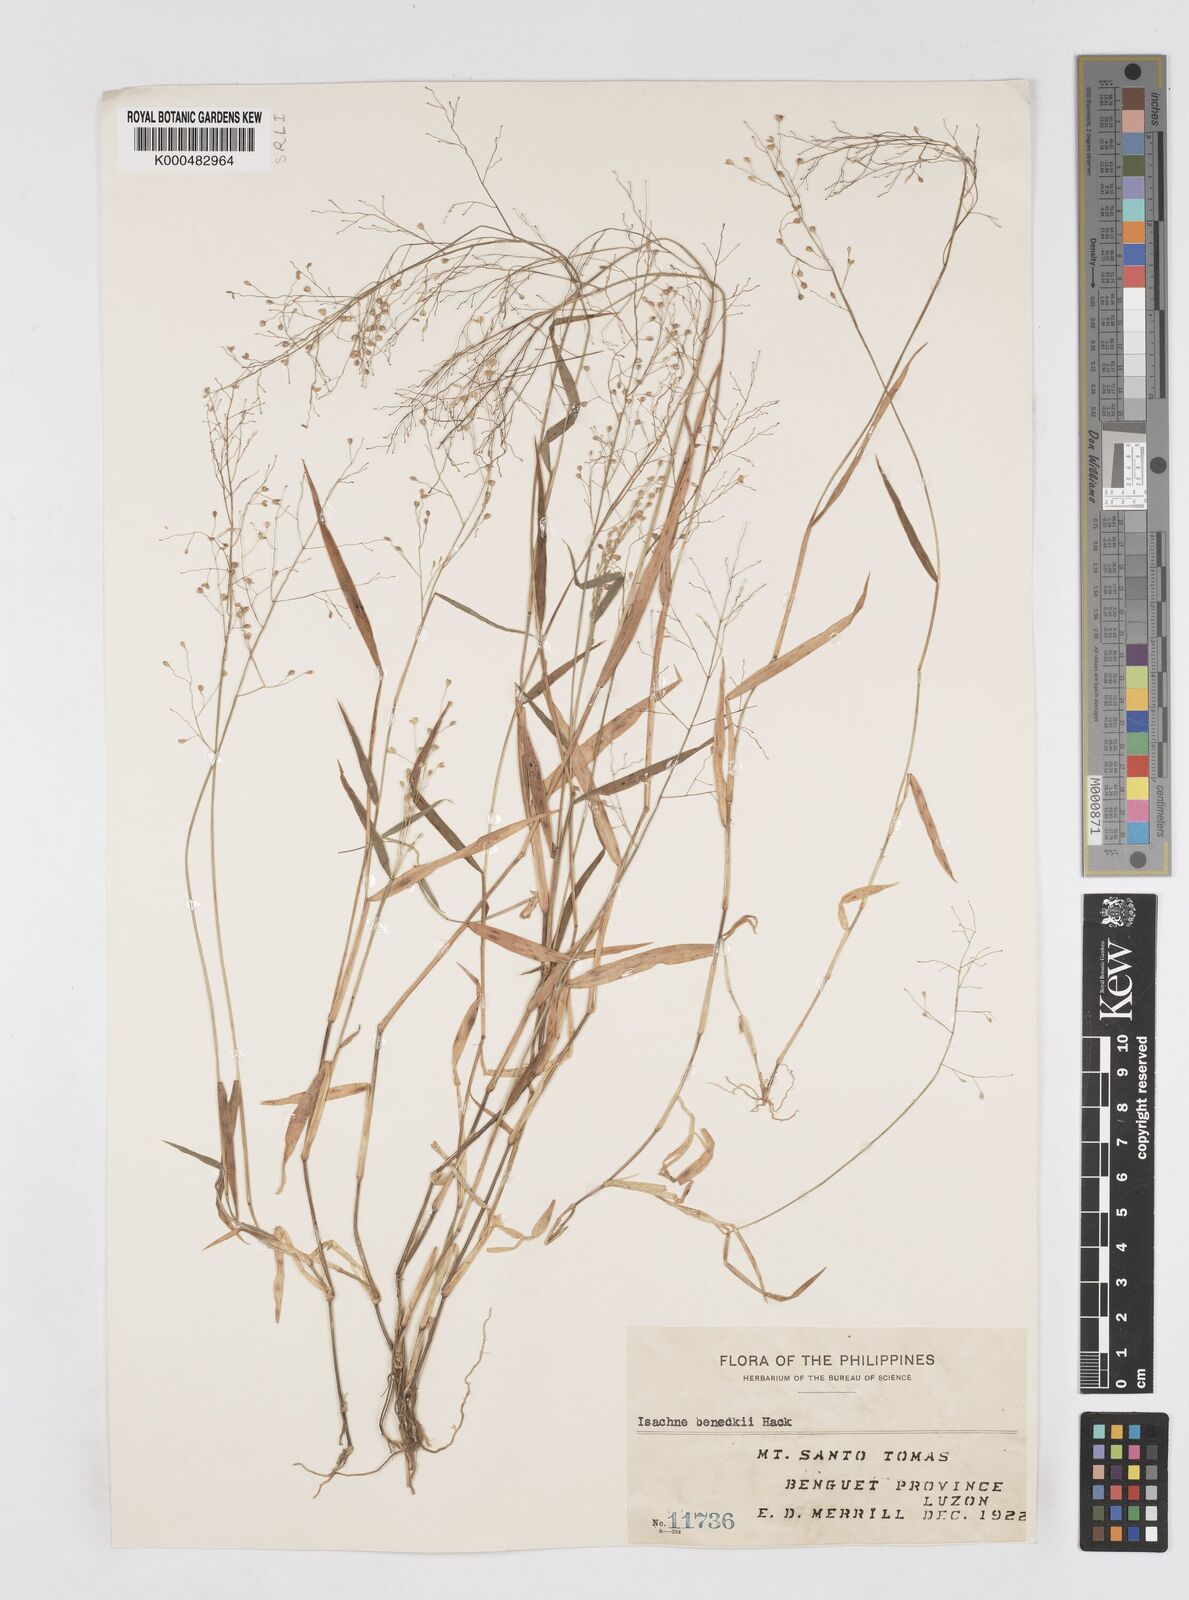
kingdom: Plantae
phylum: Tracheophyta
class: Liliopsida
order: Poales
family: Poaceae
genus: Isachne
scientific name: Isachne clarkei
